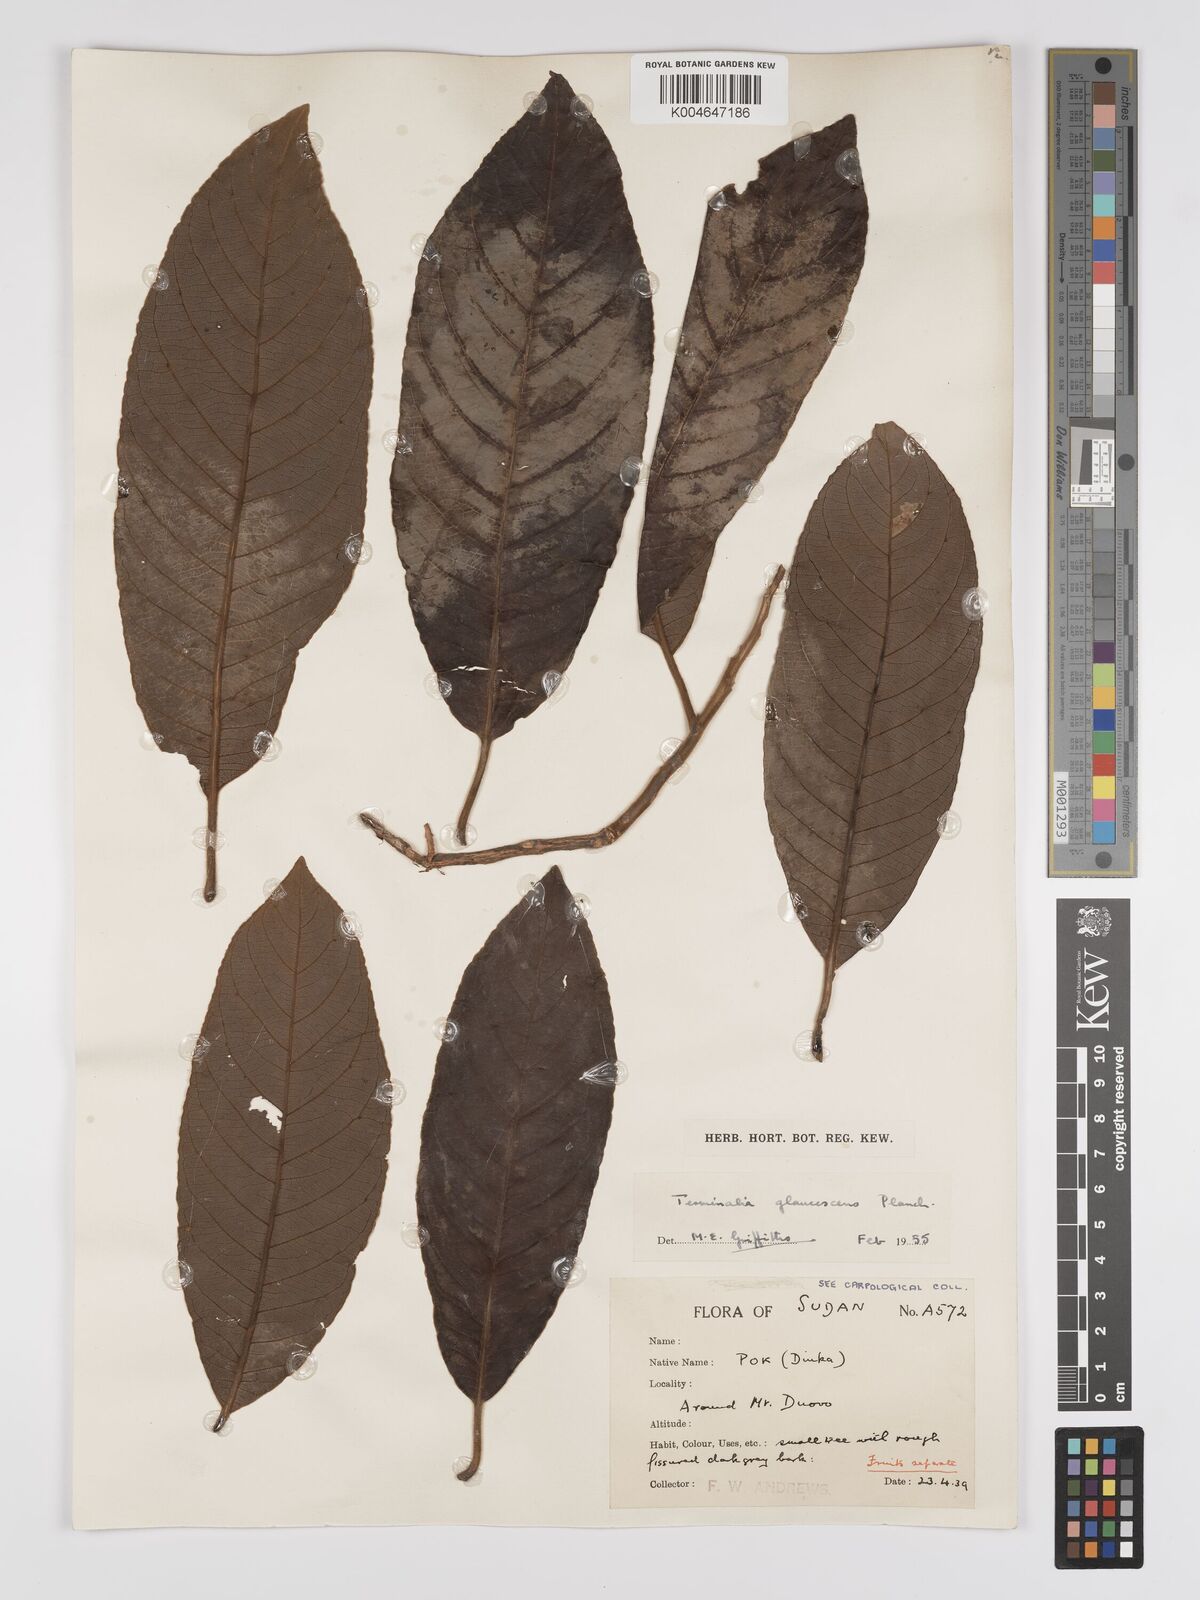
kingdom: Plantae
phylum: Tracheophyta
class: Magnoliopsida
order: Myrtales
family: Combretaceae
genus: Terminalia
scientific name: Terminalia schimperiana
